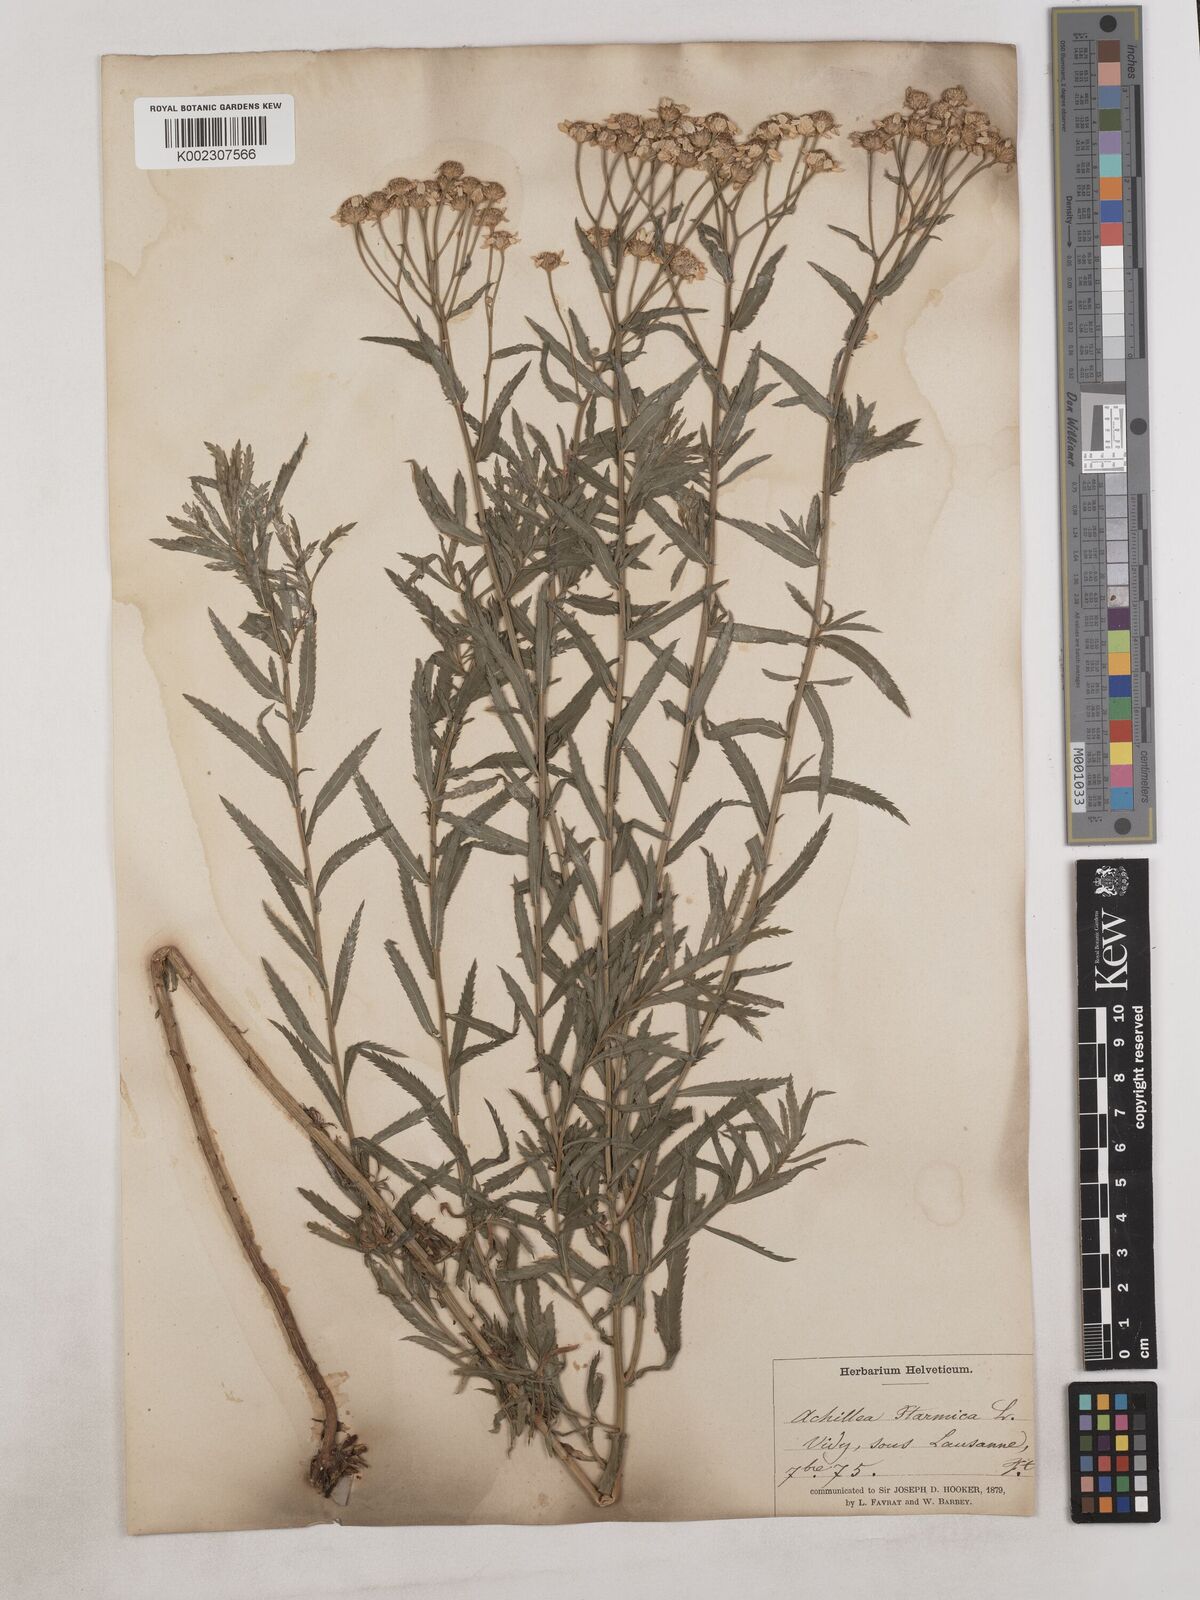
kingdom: Plantae
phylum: Tracheophyta
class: Magnoliopsida
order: Asterales
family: Asteraceae
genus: Achillea
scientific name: Achillea serrata
